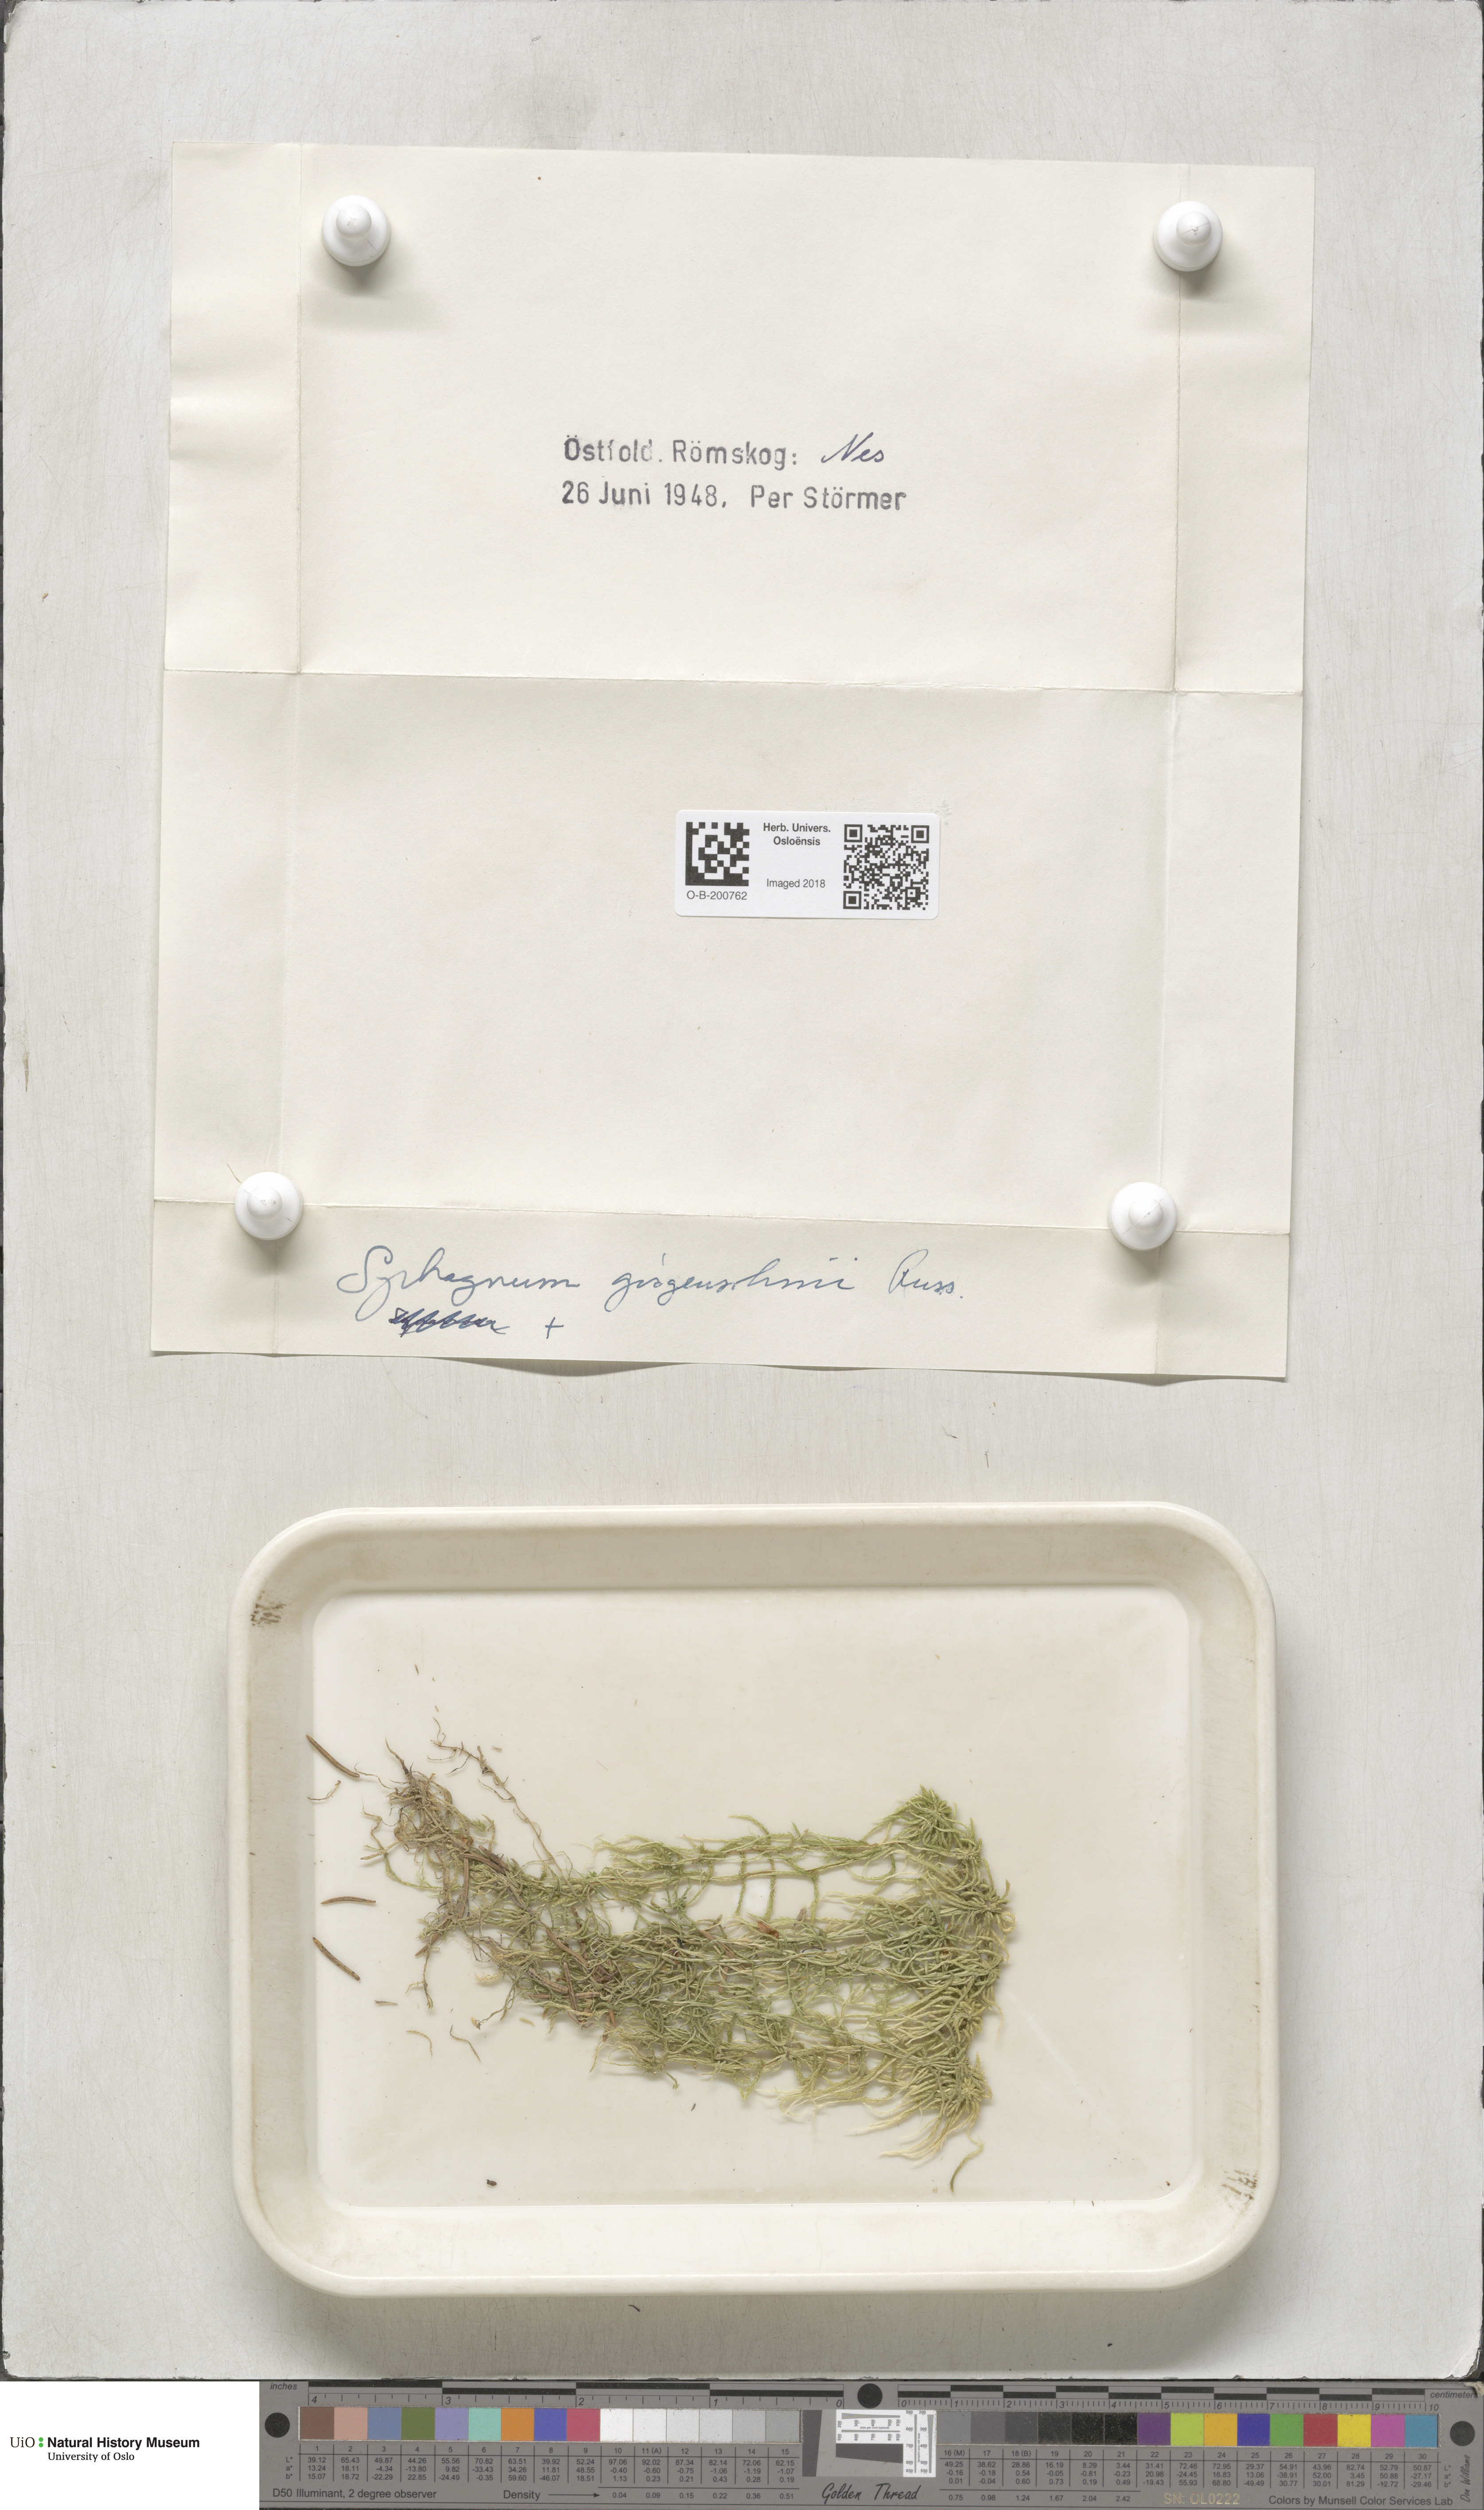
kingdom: Plantae
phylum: Bryophyta
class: Sphagnopsida
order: Sphagnales
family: Sphagnaceae
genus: Sphagnum
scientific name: Sphagnum girgensohnii
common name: Girgensohn's peat moss
